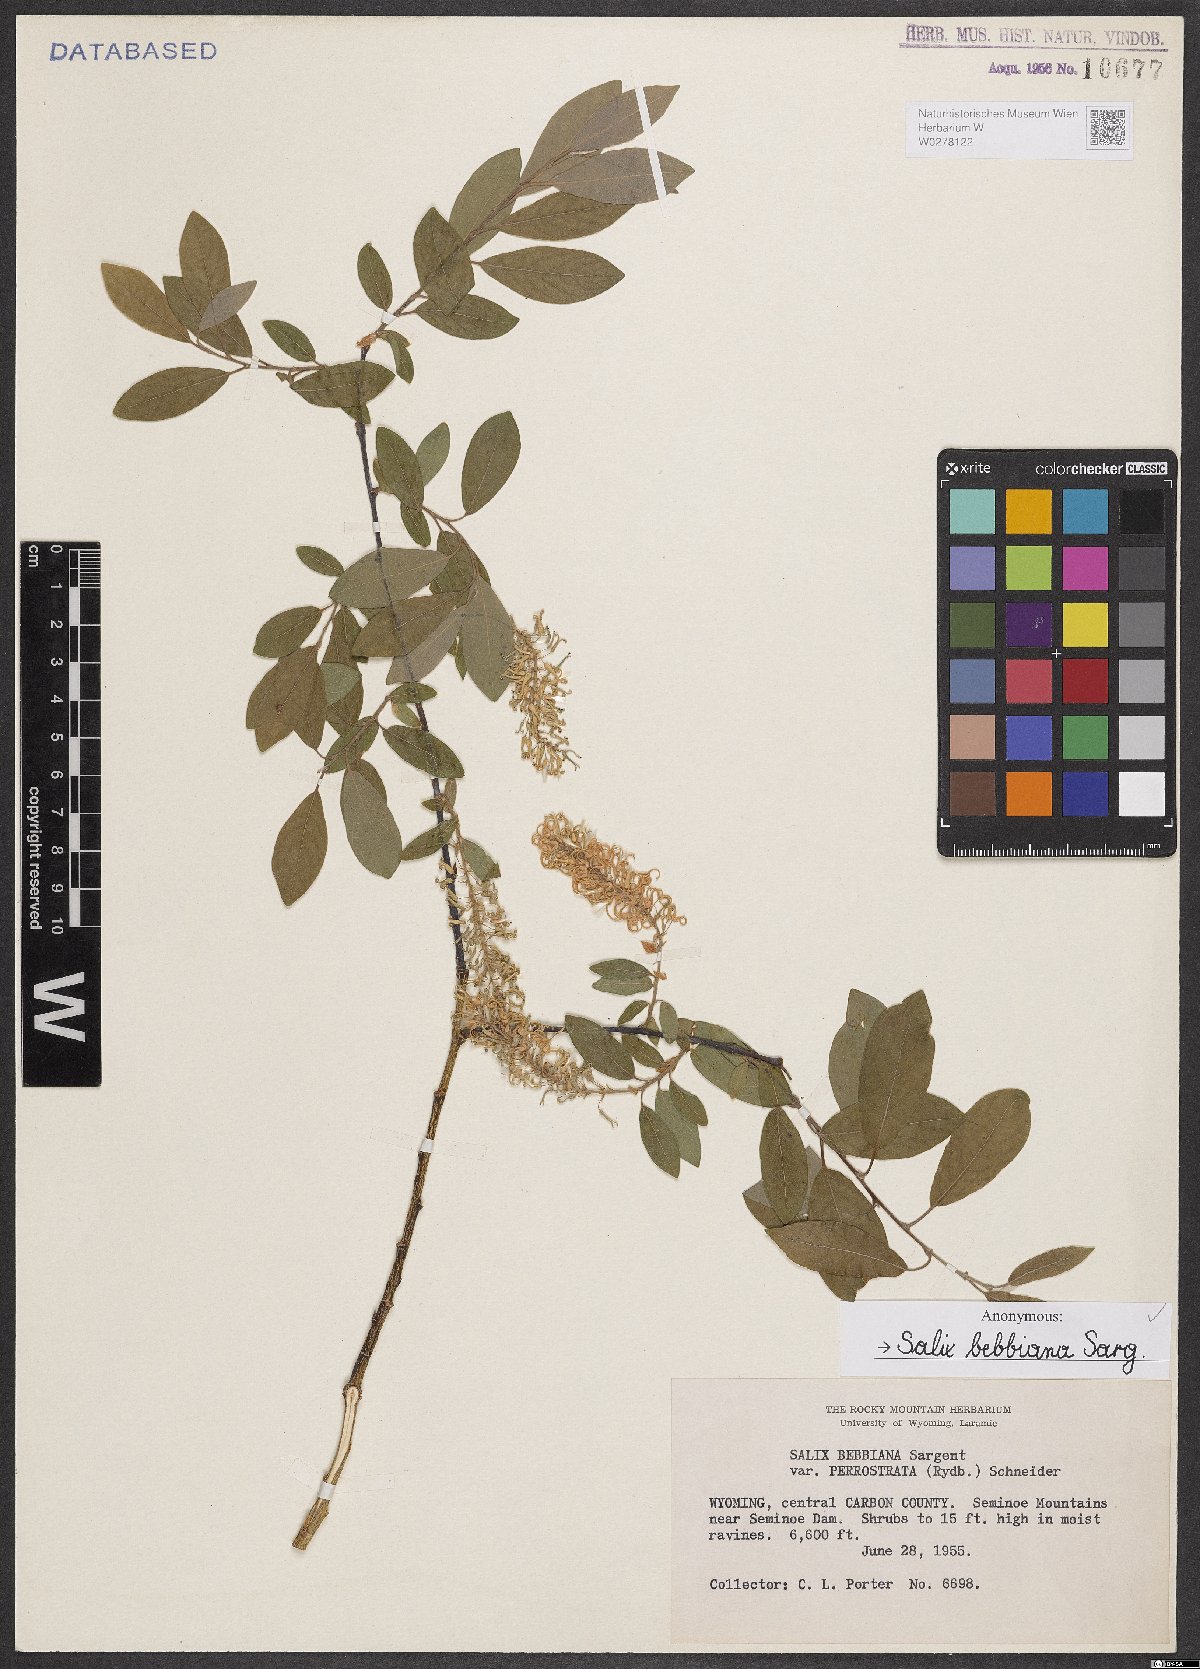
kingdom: Plantae
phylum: Tracheophyta
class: Magnoliopsida
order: Malpighiales
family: Salicaceae
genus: Salix
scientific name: Salix bebbiana
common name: Bebb's willow
